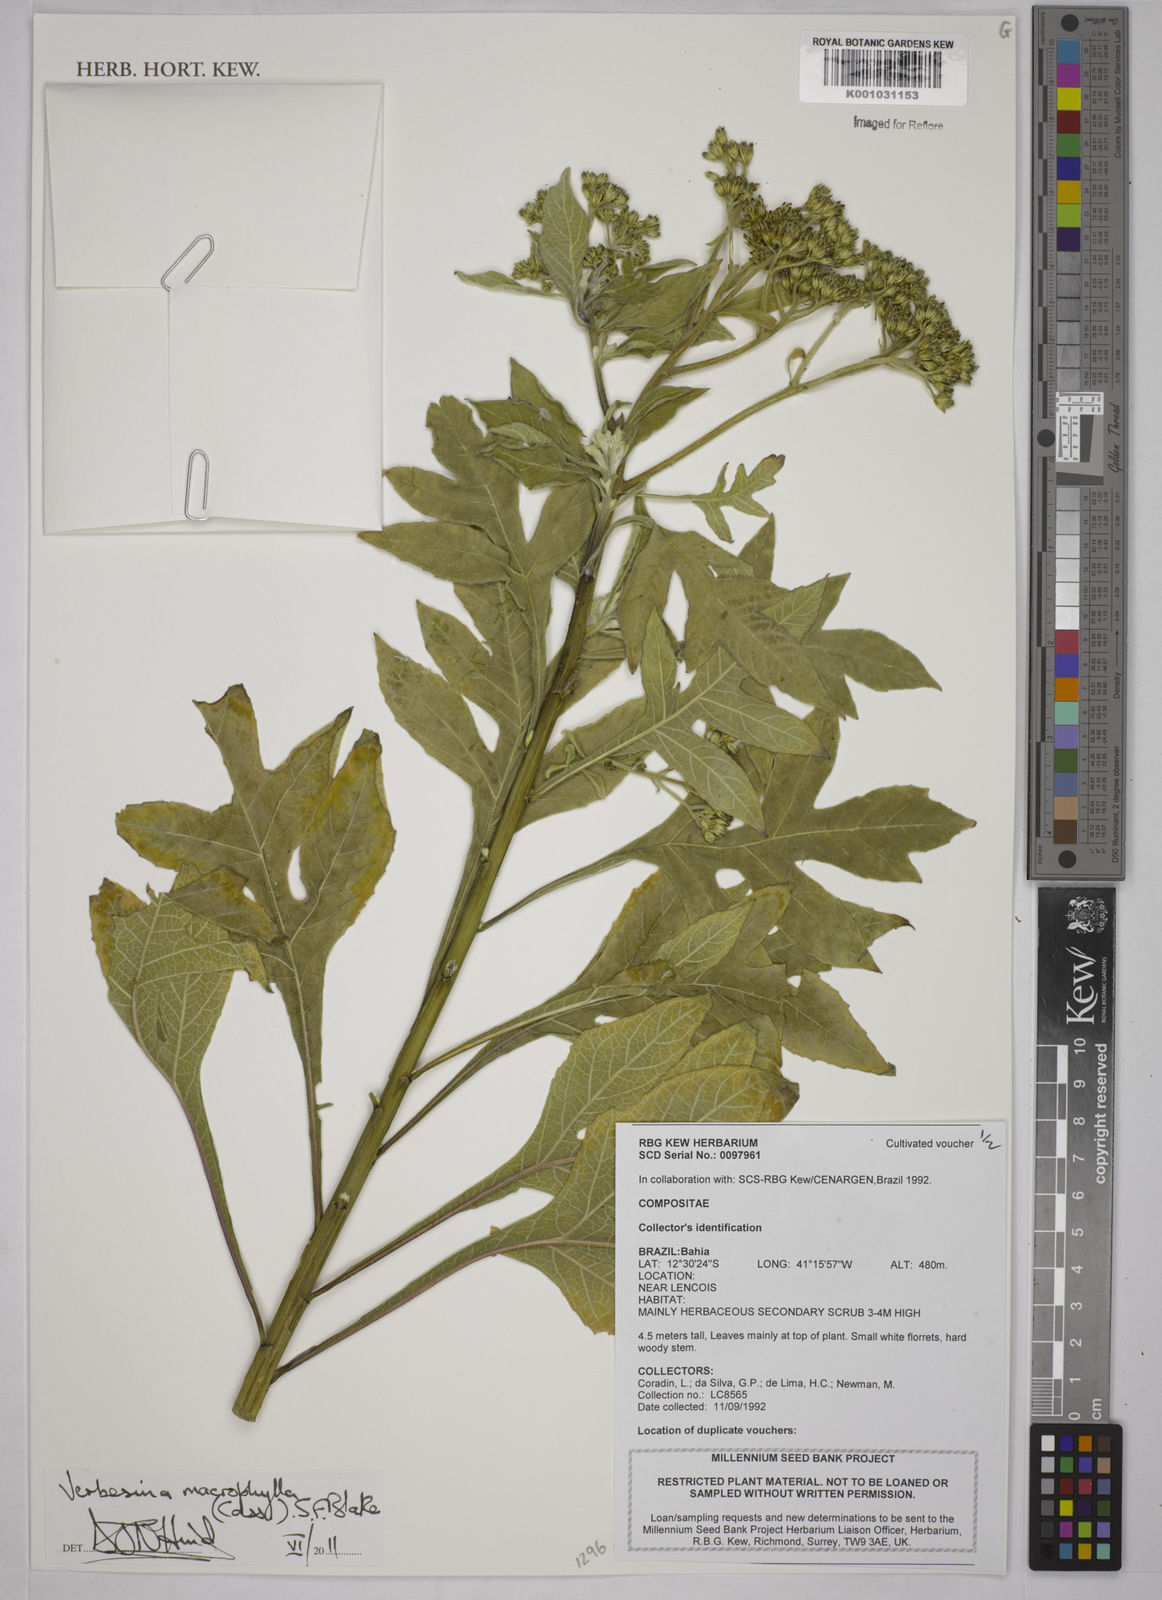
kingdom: Plantae
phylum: Tracheophyta
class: Magnoliopsida
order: Asterales
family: Asteraceae
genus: Verbesina
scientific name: Verbesina macrophylla
